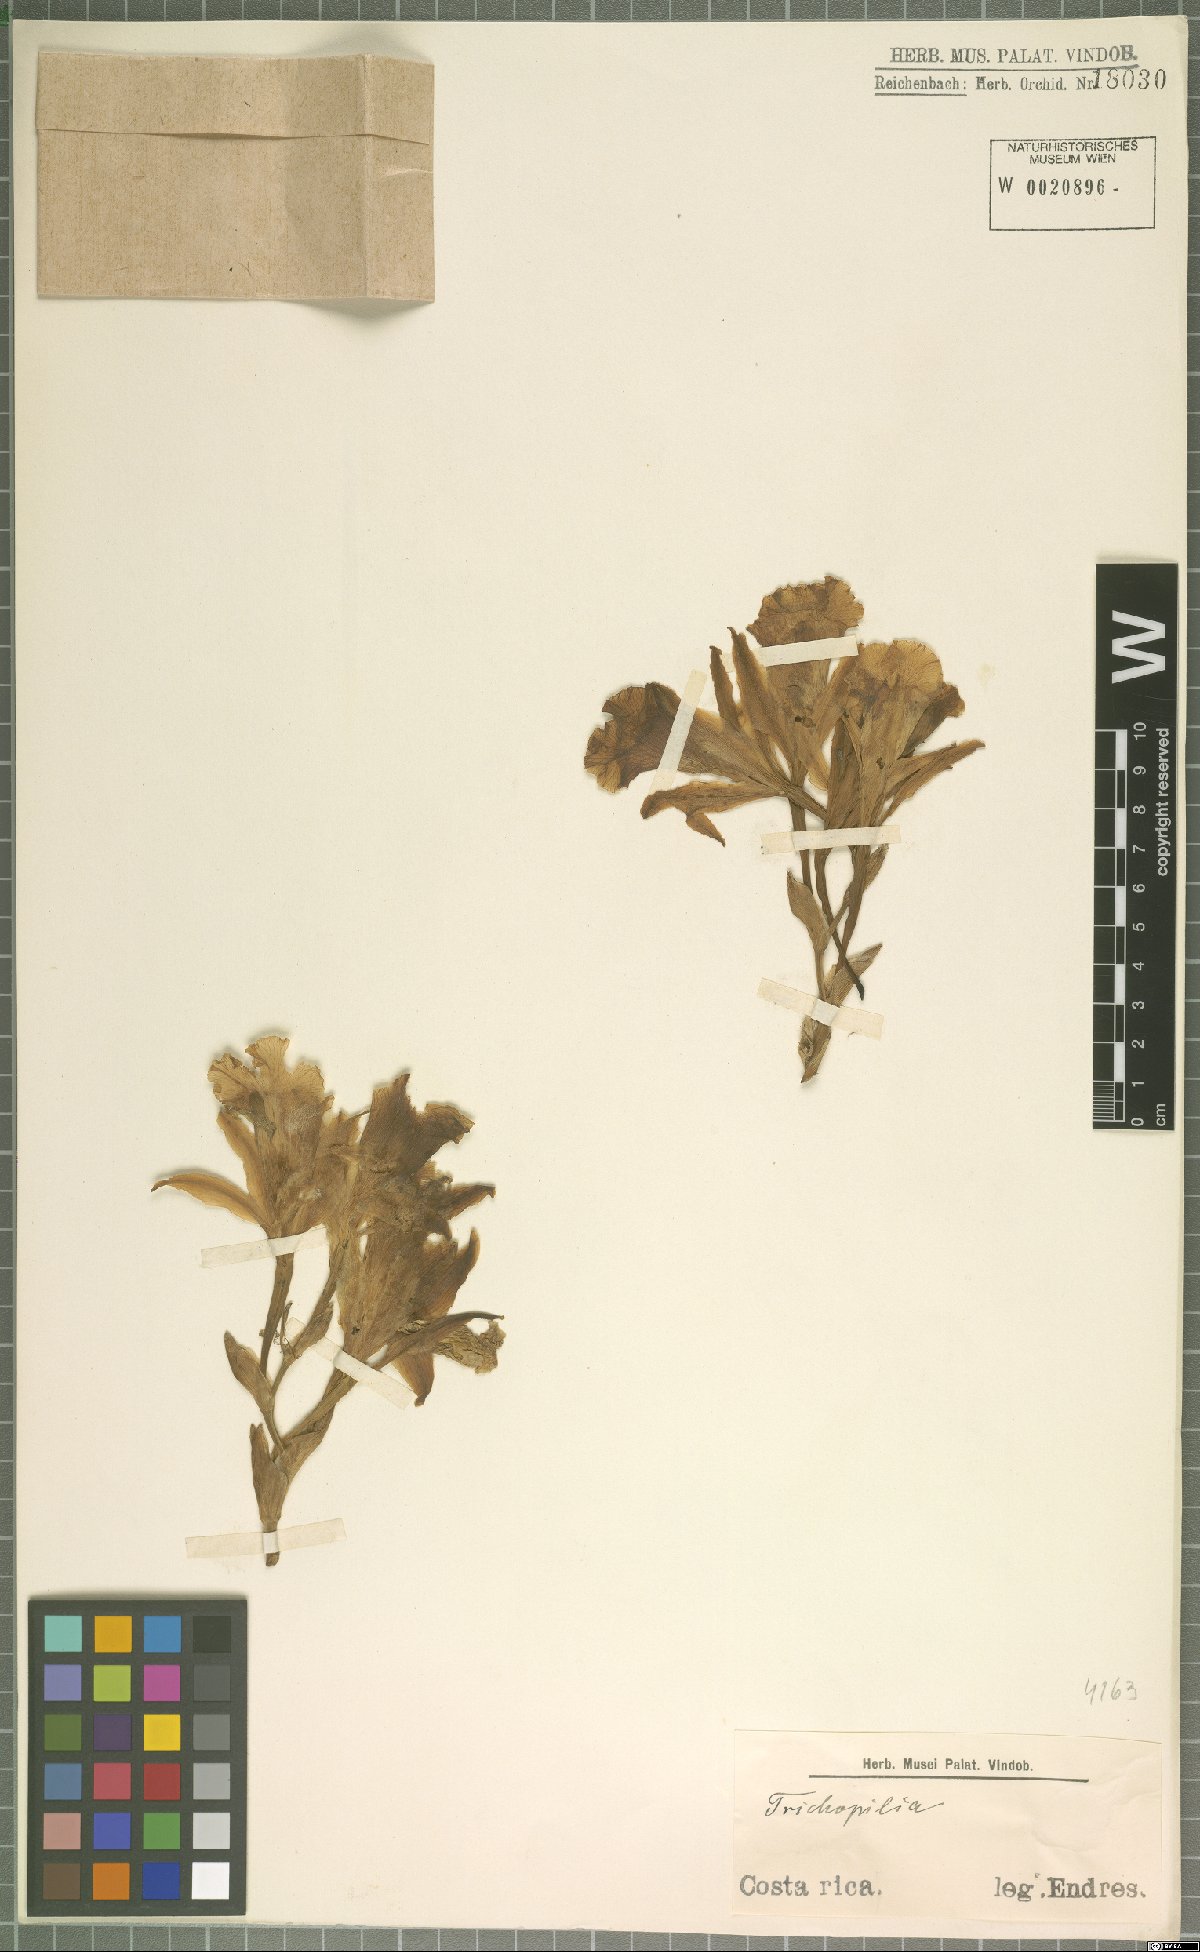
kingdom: Plantae
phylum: Tracheophyta
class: Liliopsida
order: Asparagales
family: Orchidaceae
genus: Trichopilia
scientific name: Trichopilia
